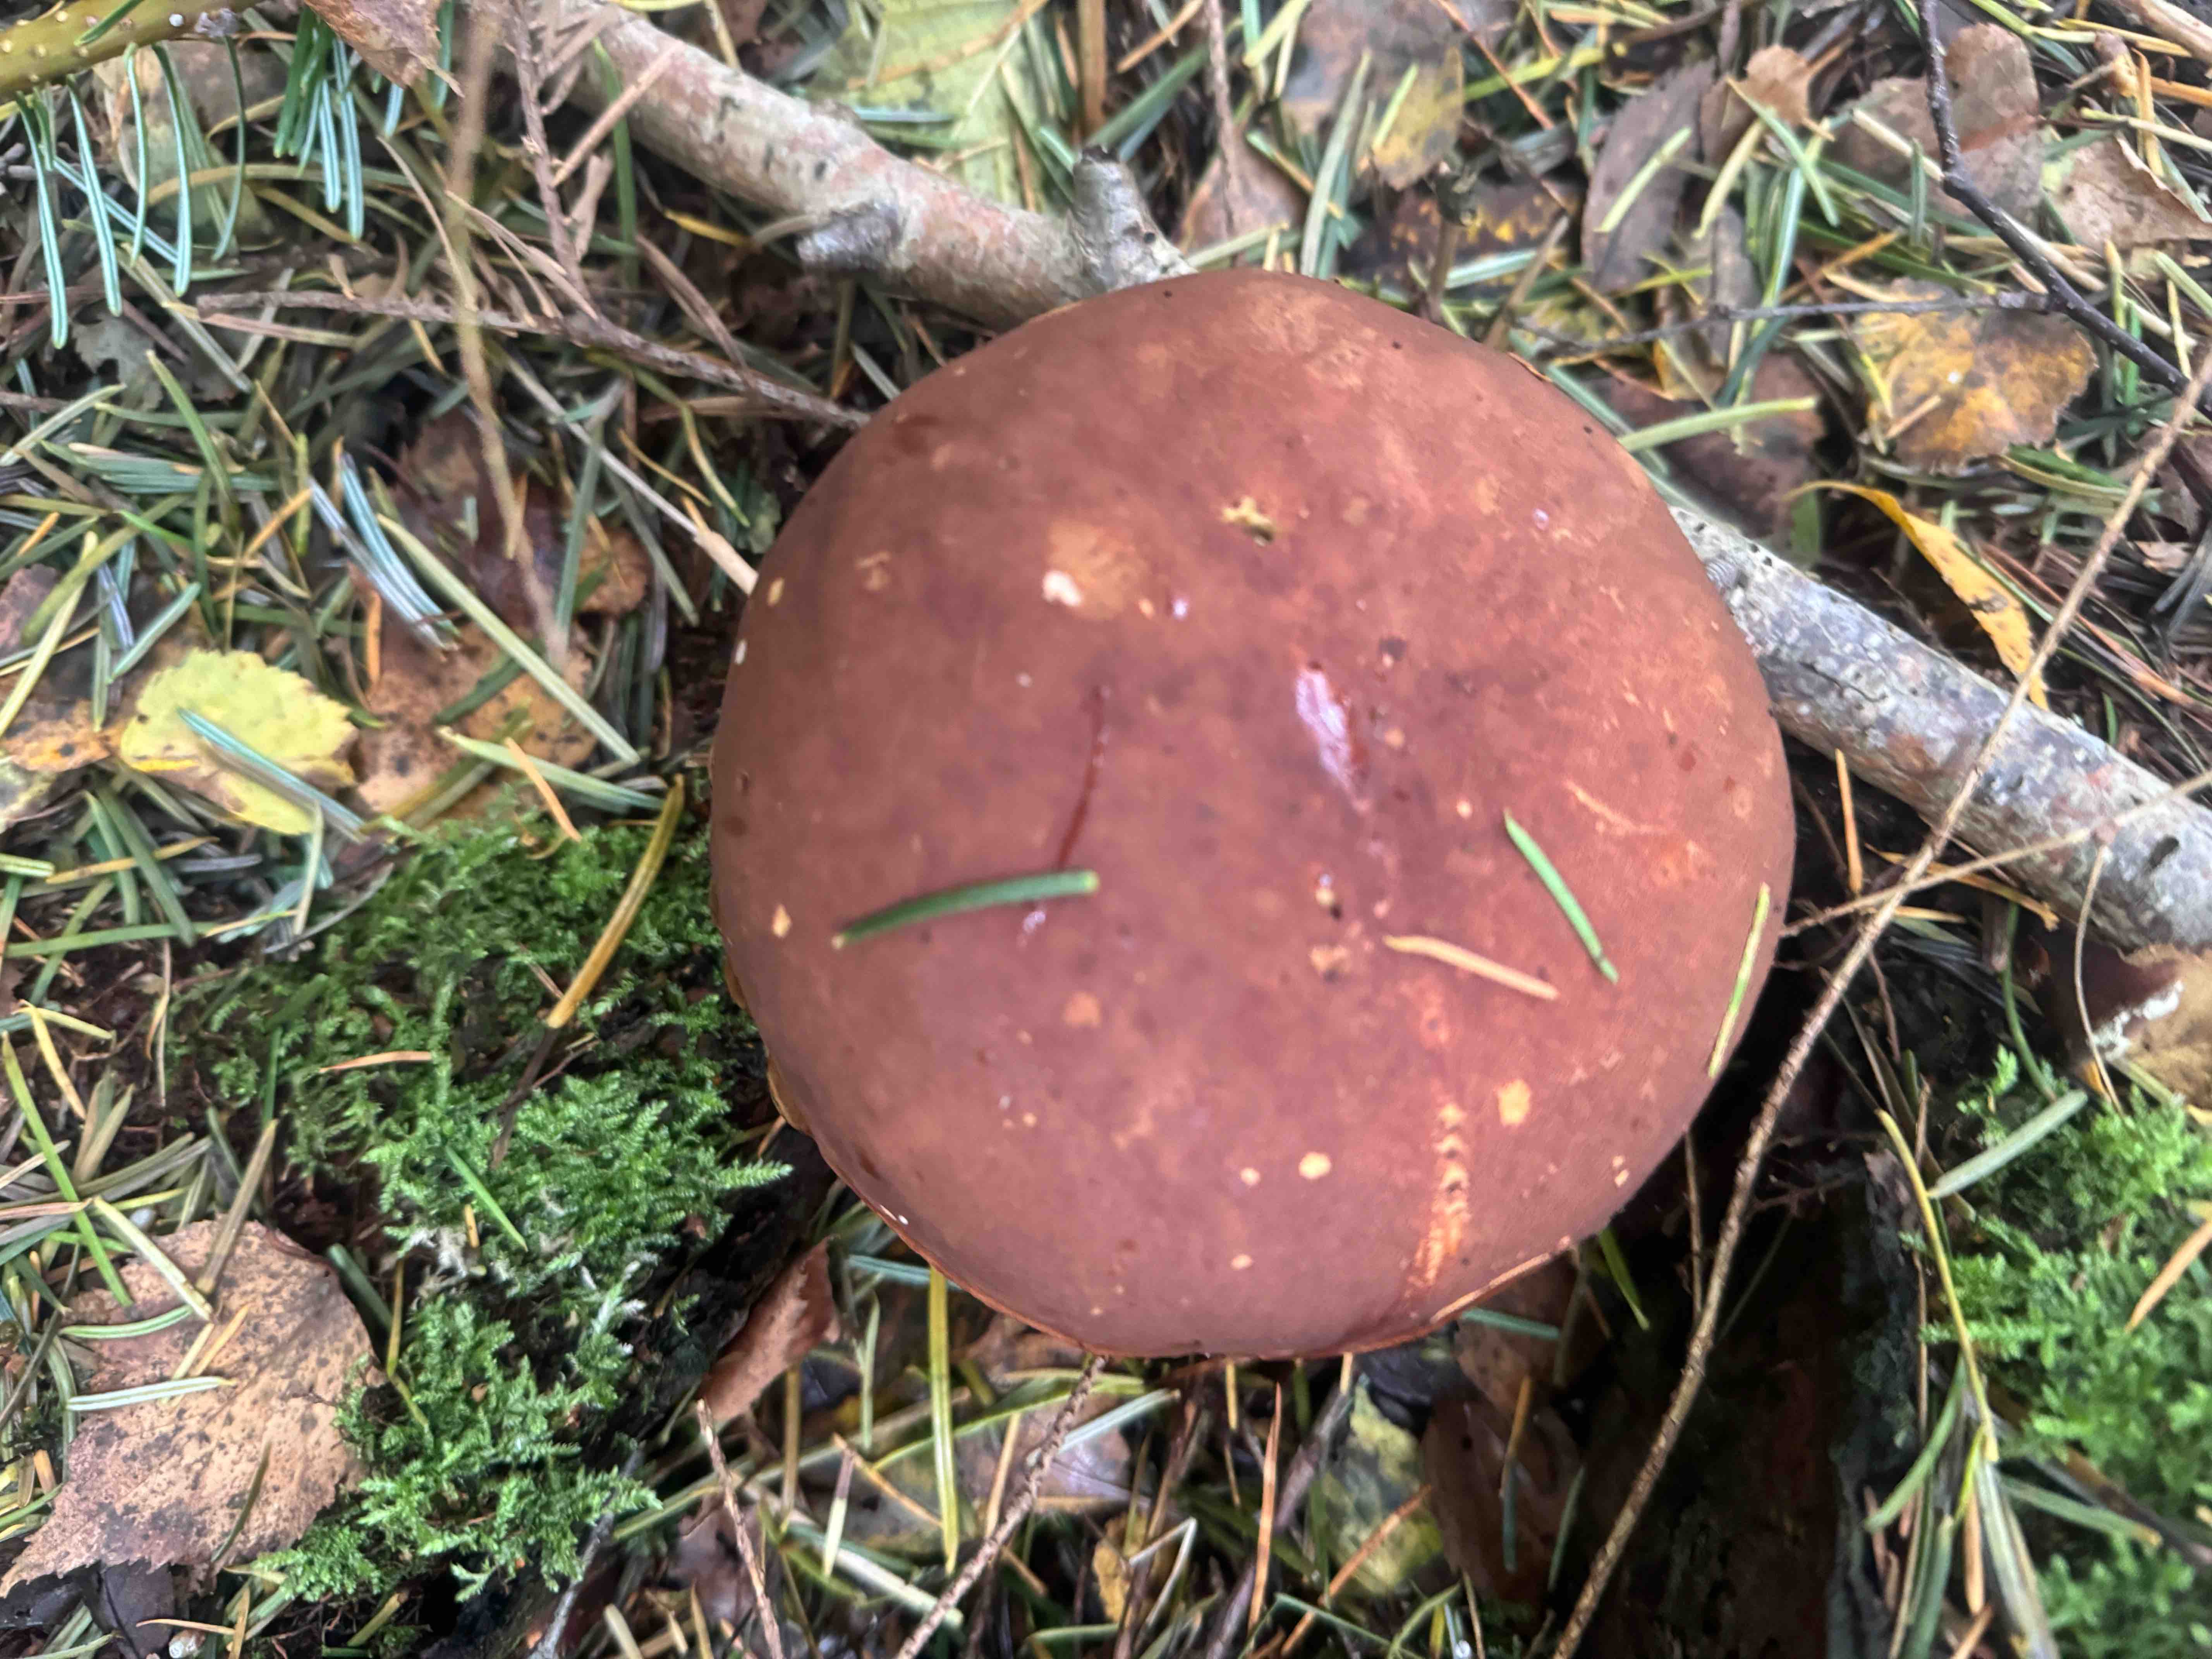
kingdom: Fungi
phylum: Basidiomycota
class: Agaricomycetes
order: Boletales
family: Boletaceae
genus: Imleria
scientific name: Imleria badia
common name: brunstokket rørhat
